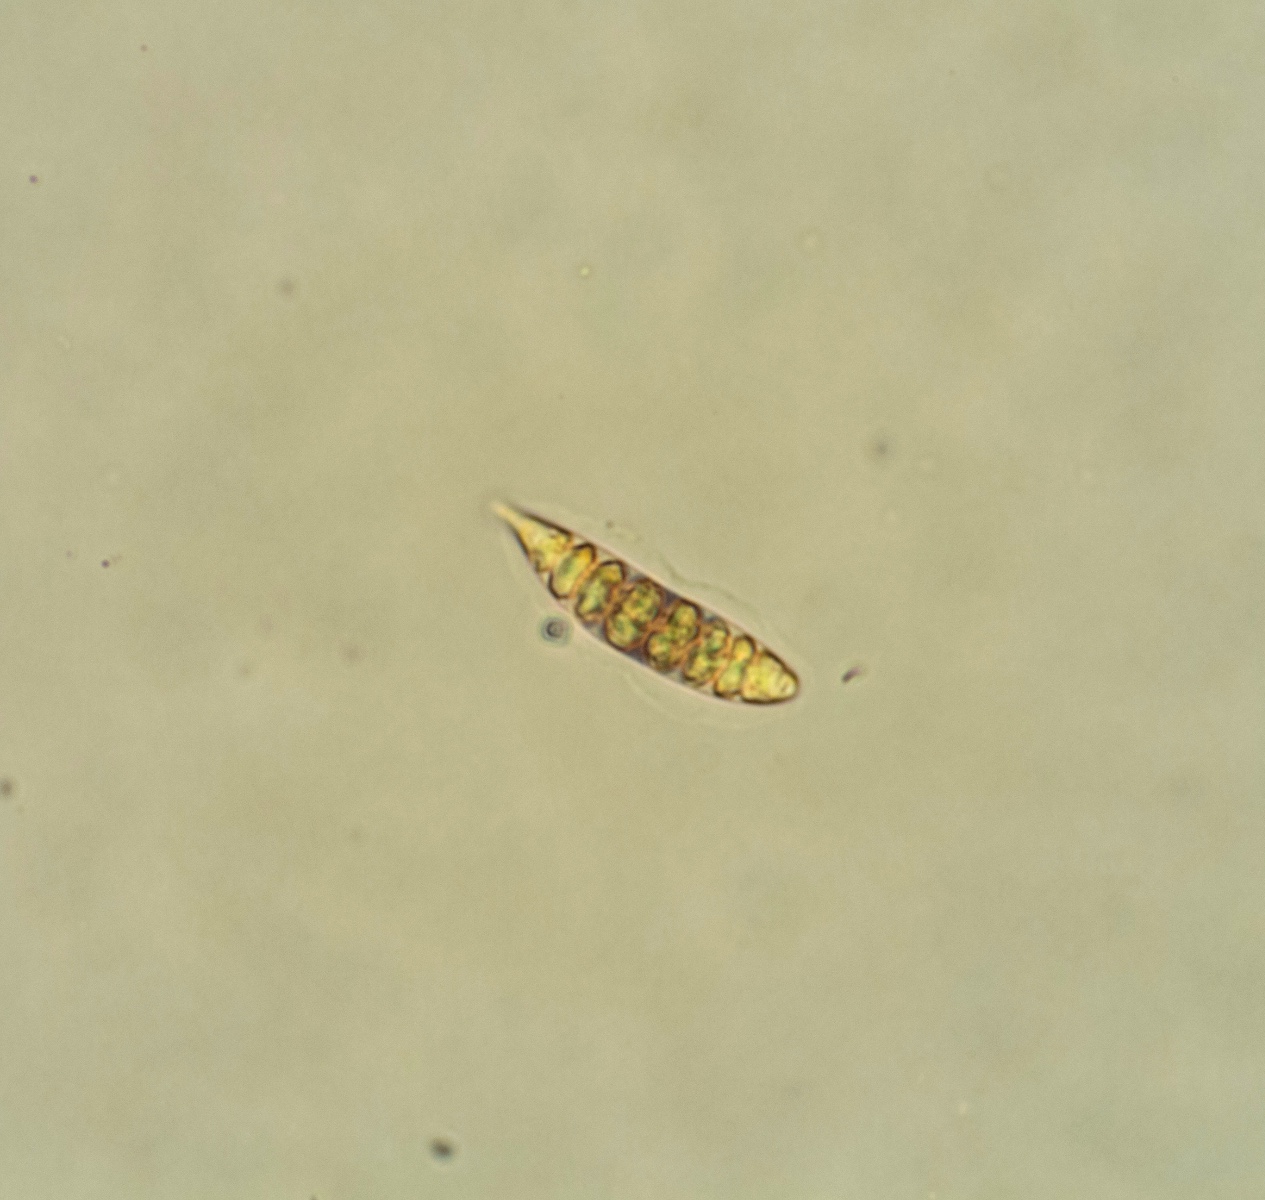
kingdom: Fungi
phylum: Ascomycota
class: Lecanoromycetes
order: Ostropales
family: Graphidaceae
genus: Graphis
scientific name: Graphis scripta
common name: almindelig skriftlav
